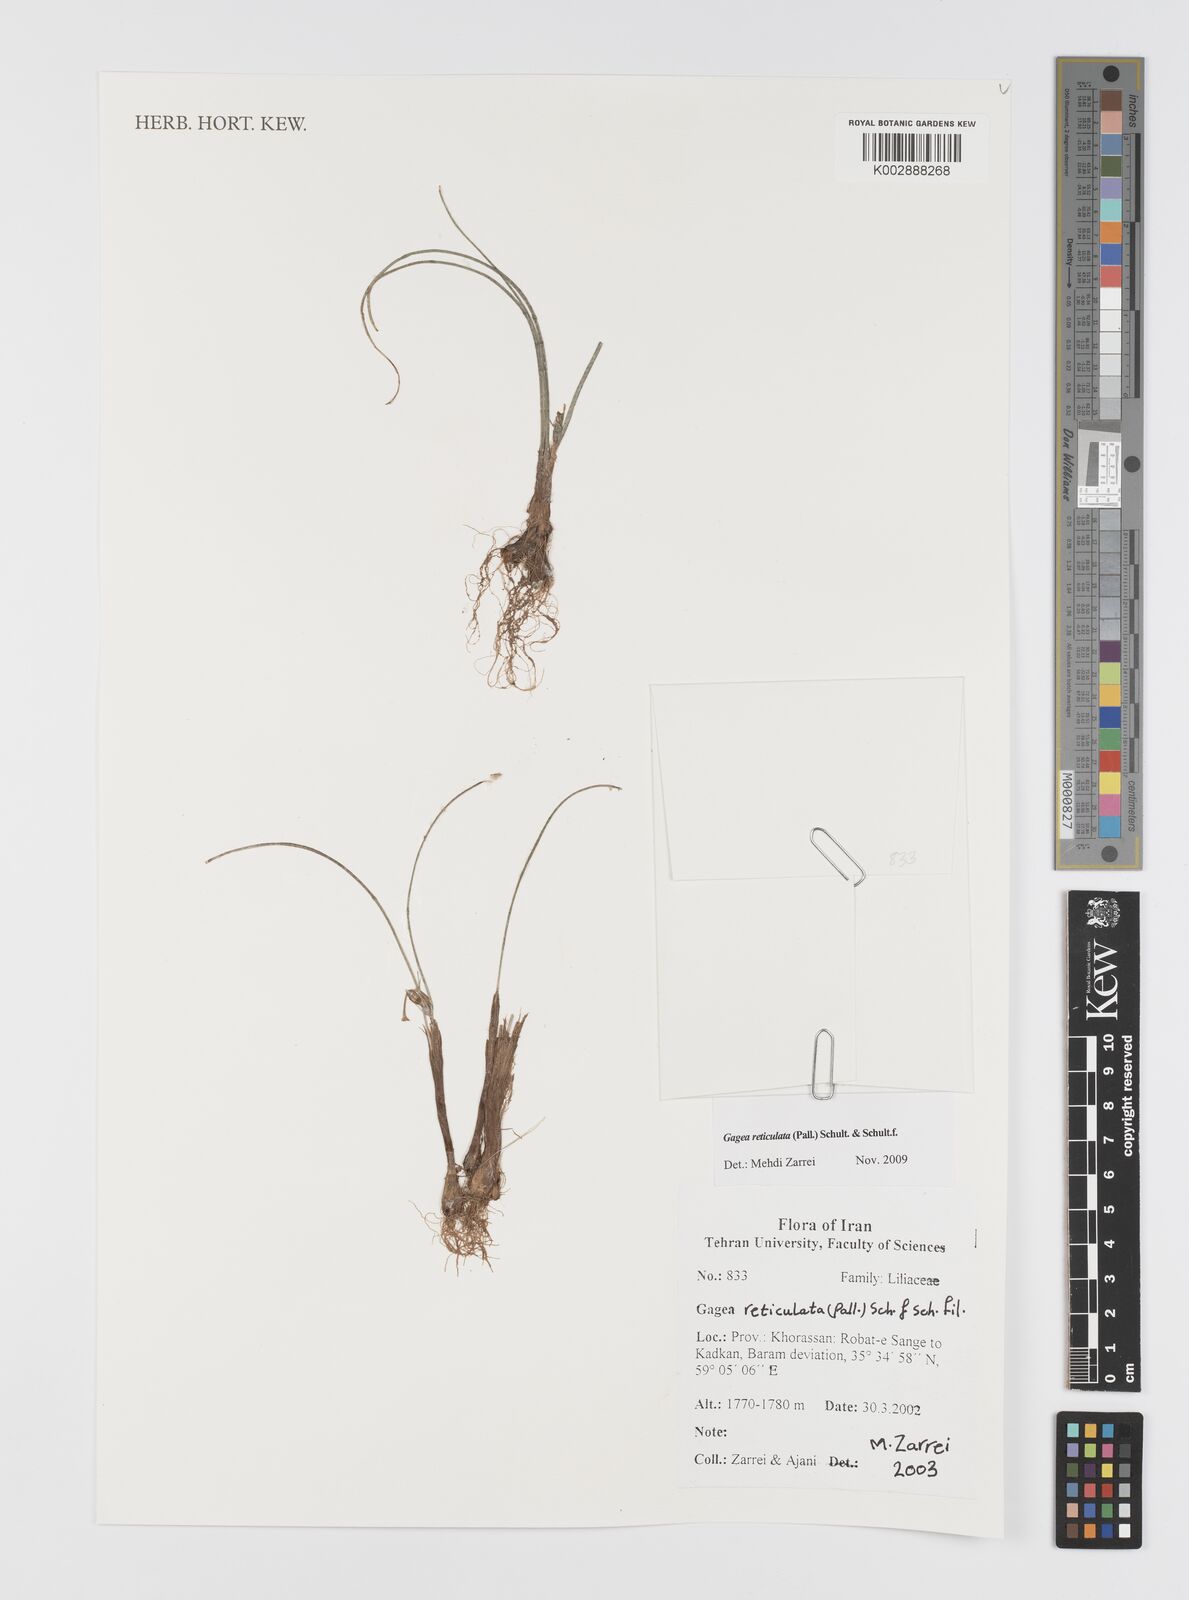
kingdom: Plantae
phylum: Tracheophyta
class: Liliopsida
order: Liliales
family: Liliaceae
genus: Gagea
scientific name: Gagea reticulata
